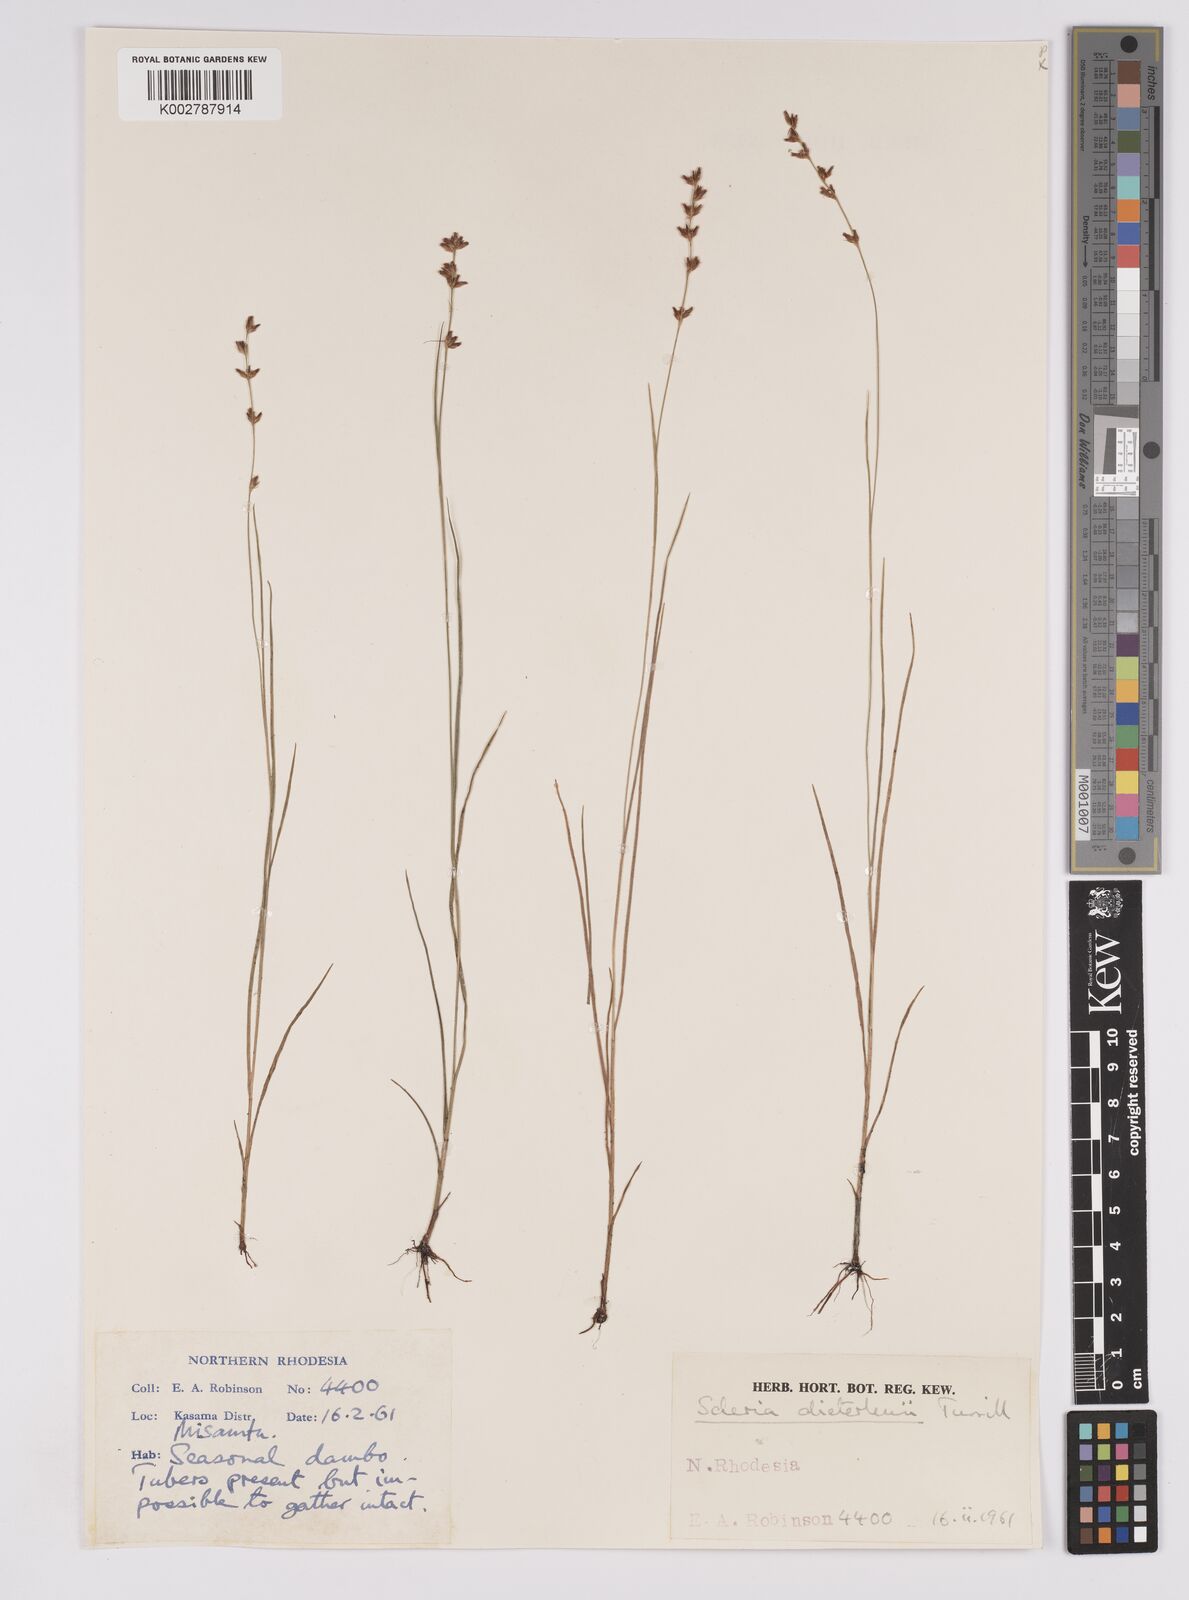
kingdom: Plantae
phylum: Tracheophyta
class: Liliopsida
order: Poales
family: Cyperaceae
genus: Scleria
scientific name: Scleria flexuosa
